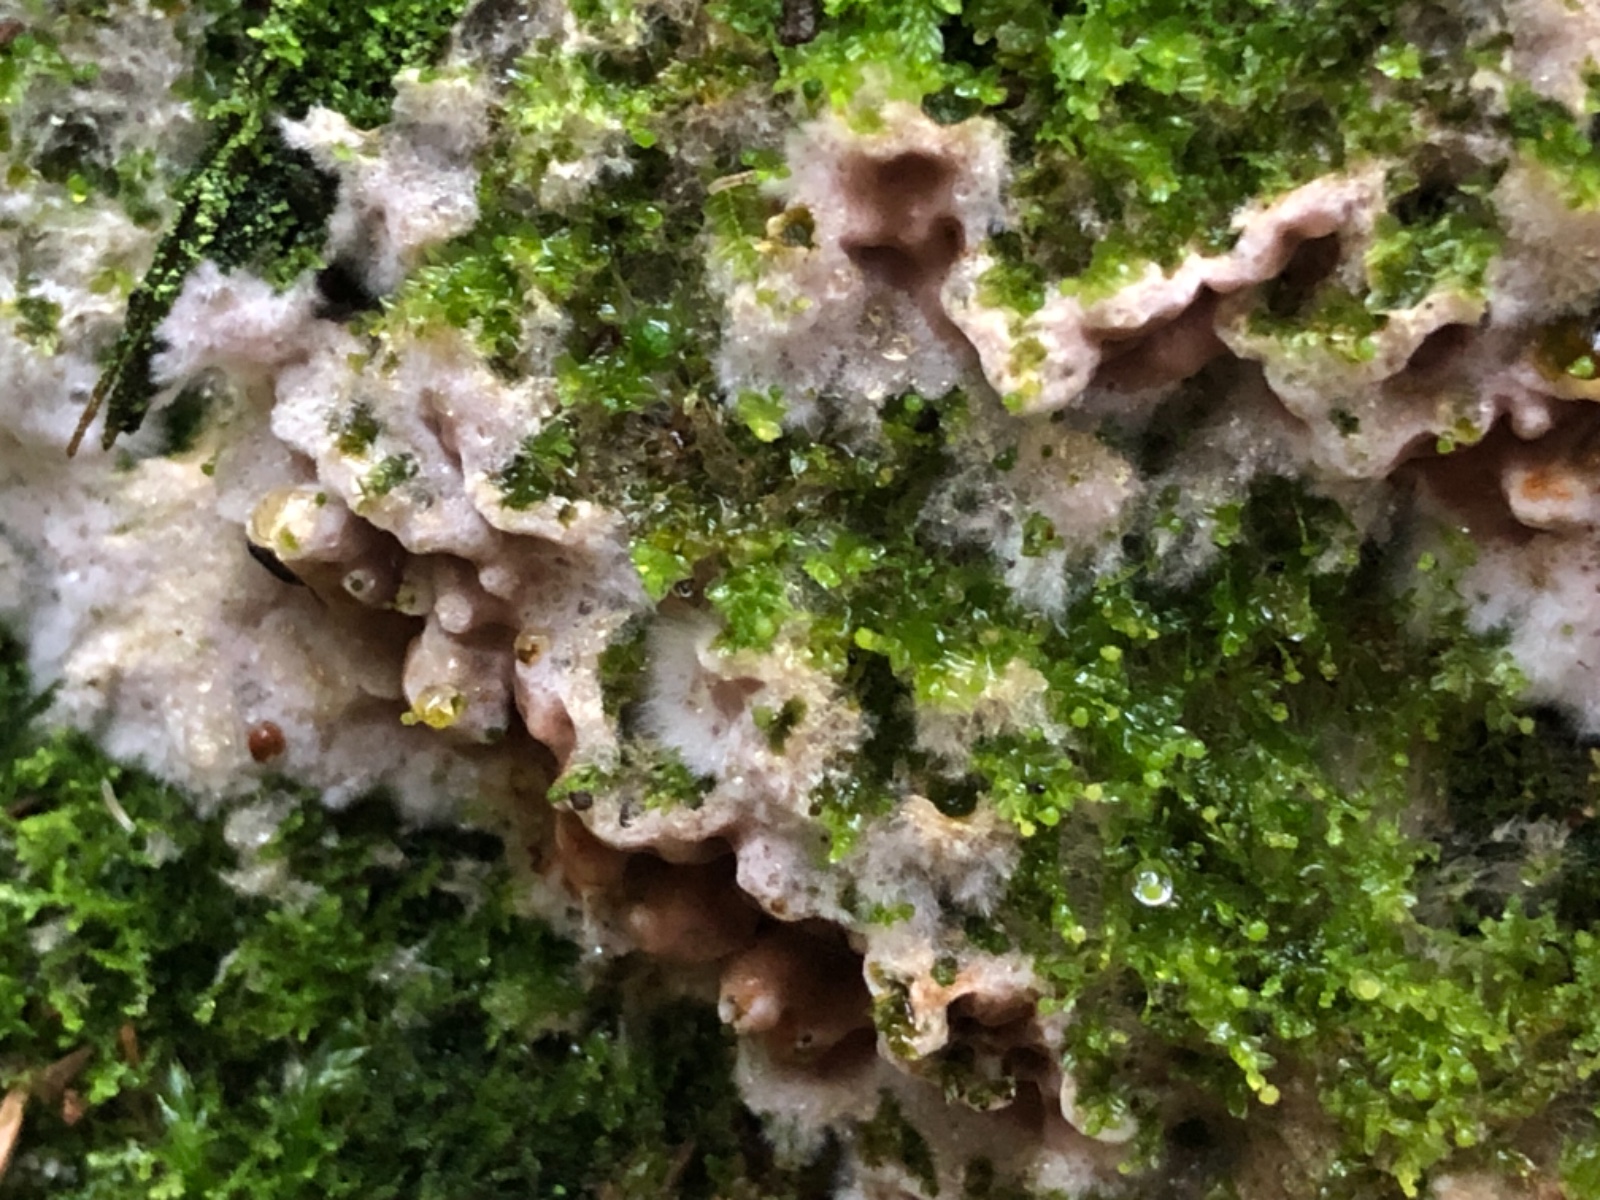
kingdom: Fungi
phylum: Basidiomycota
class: Agaricomycetes
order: Corticiales
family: Corticiaceae
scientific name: Corticiaceae
